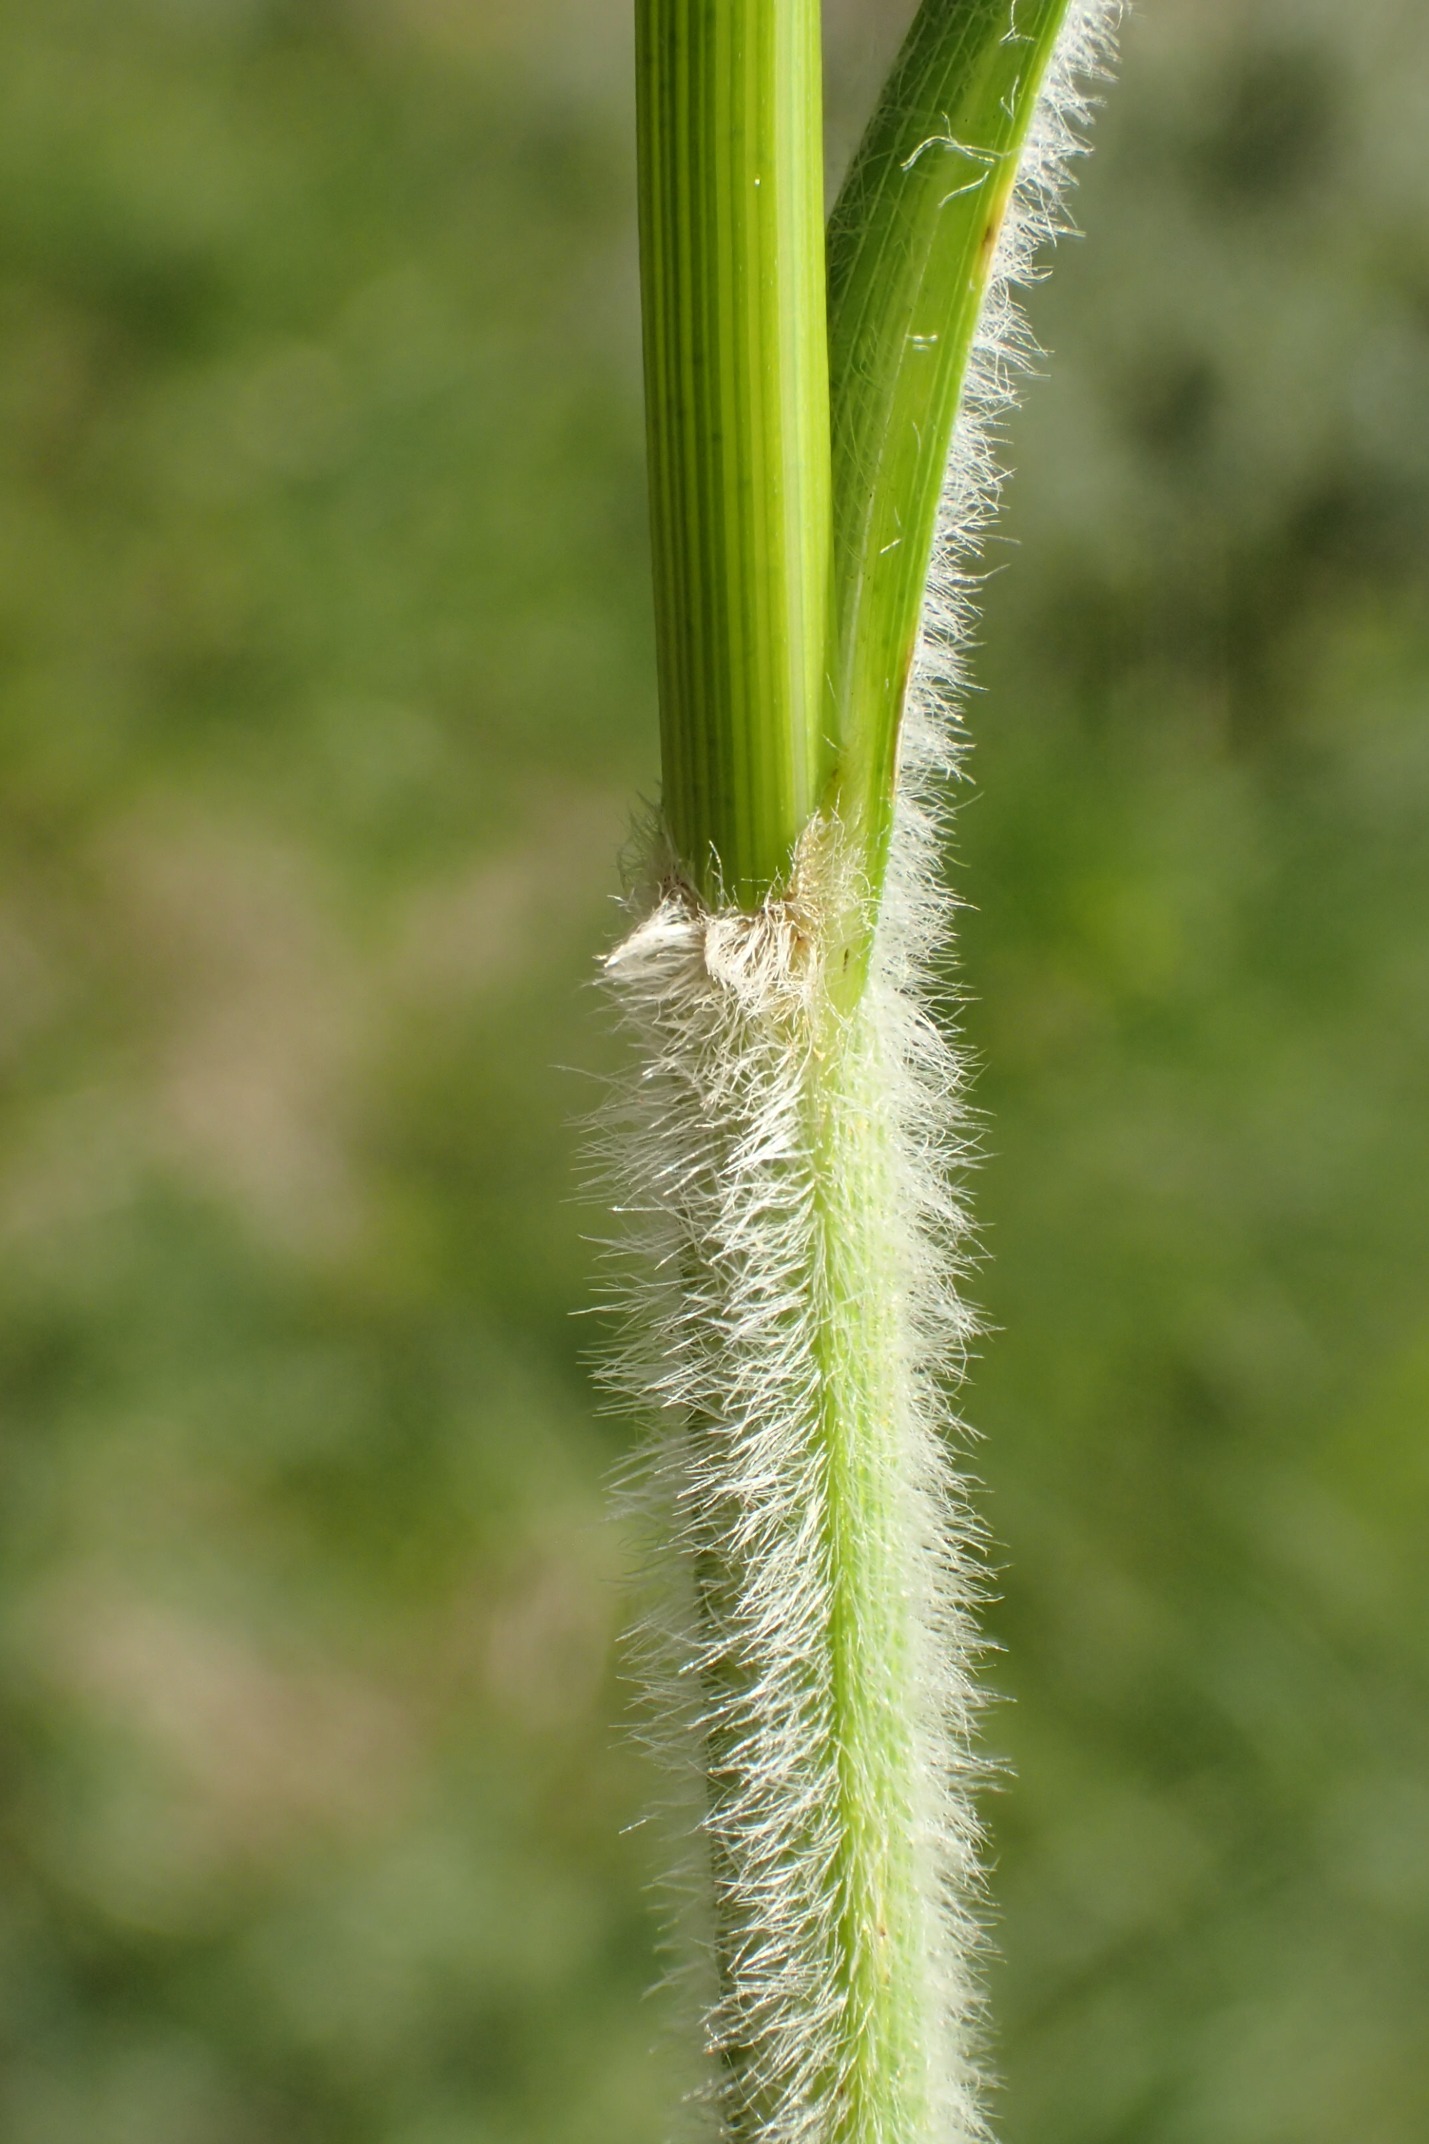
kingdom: Plantae
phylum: Tracheophyta
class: Liliopsida
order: Poales
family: Cyperaceae
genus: Carex
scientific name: Carex hirta
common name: Håret star
